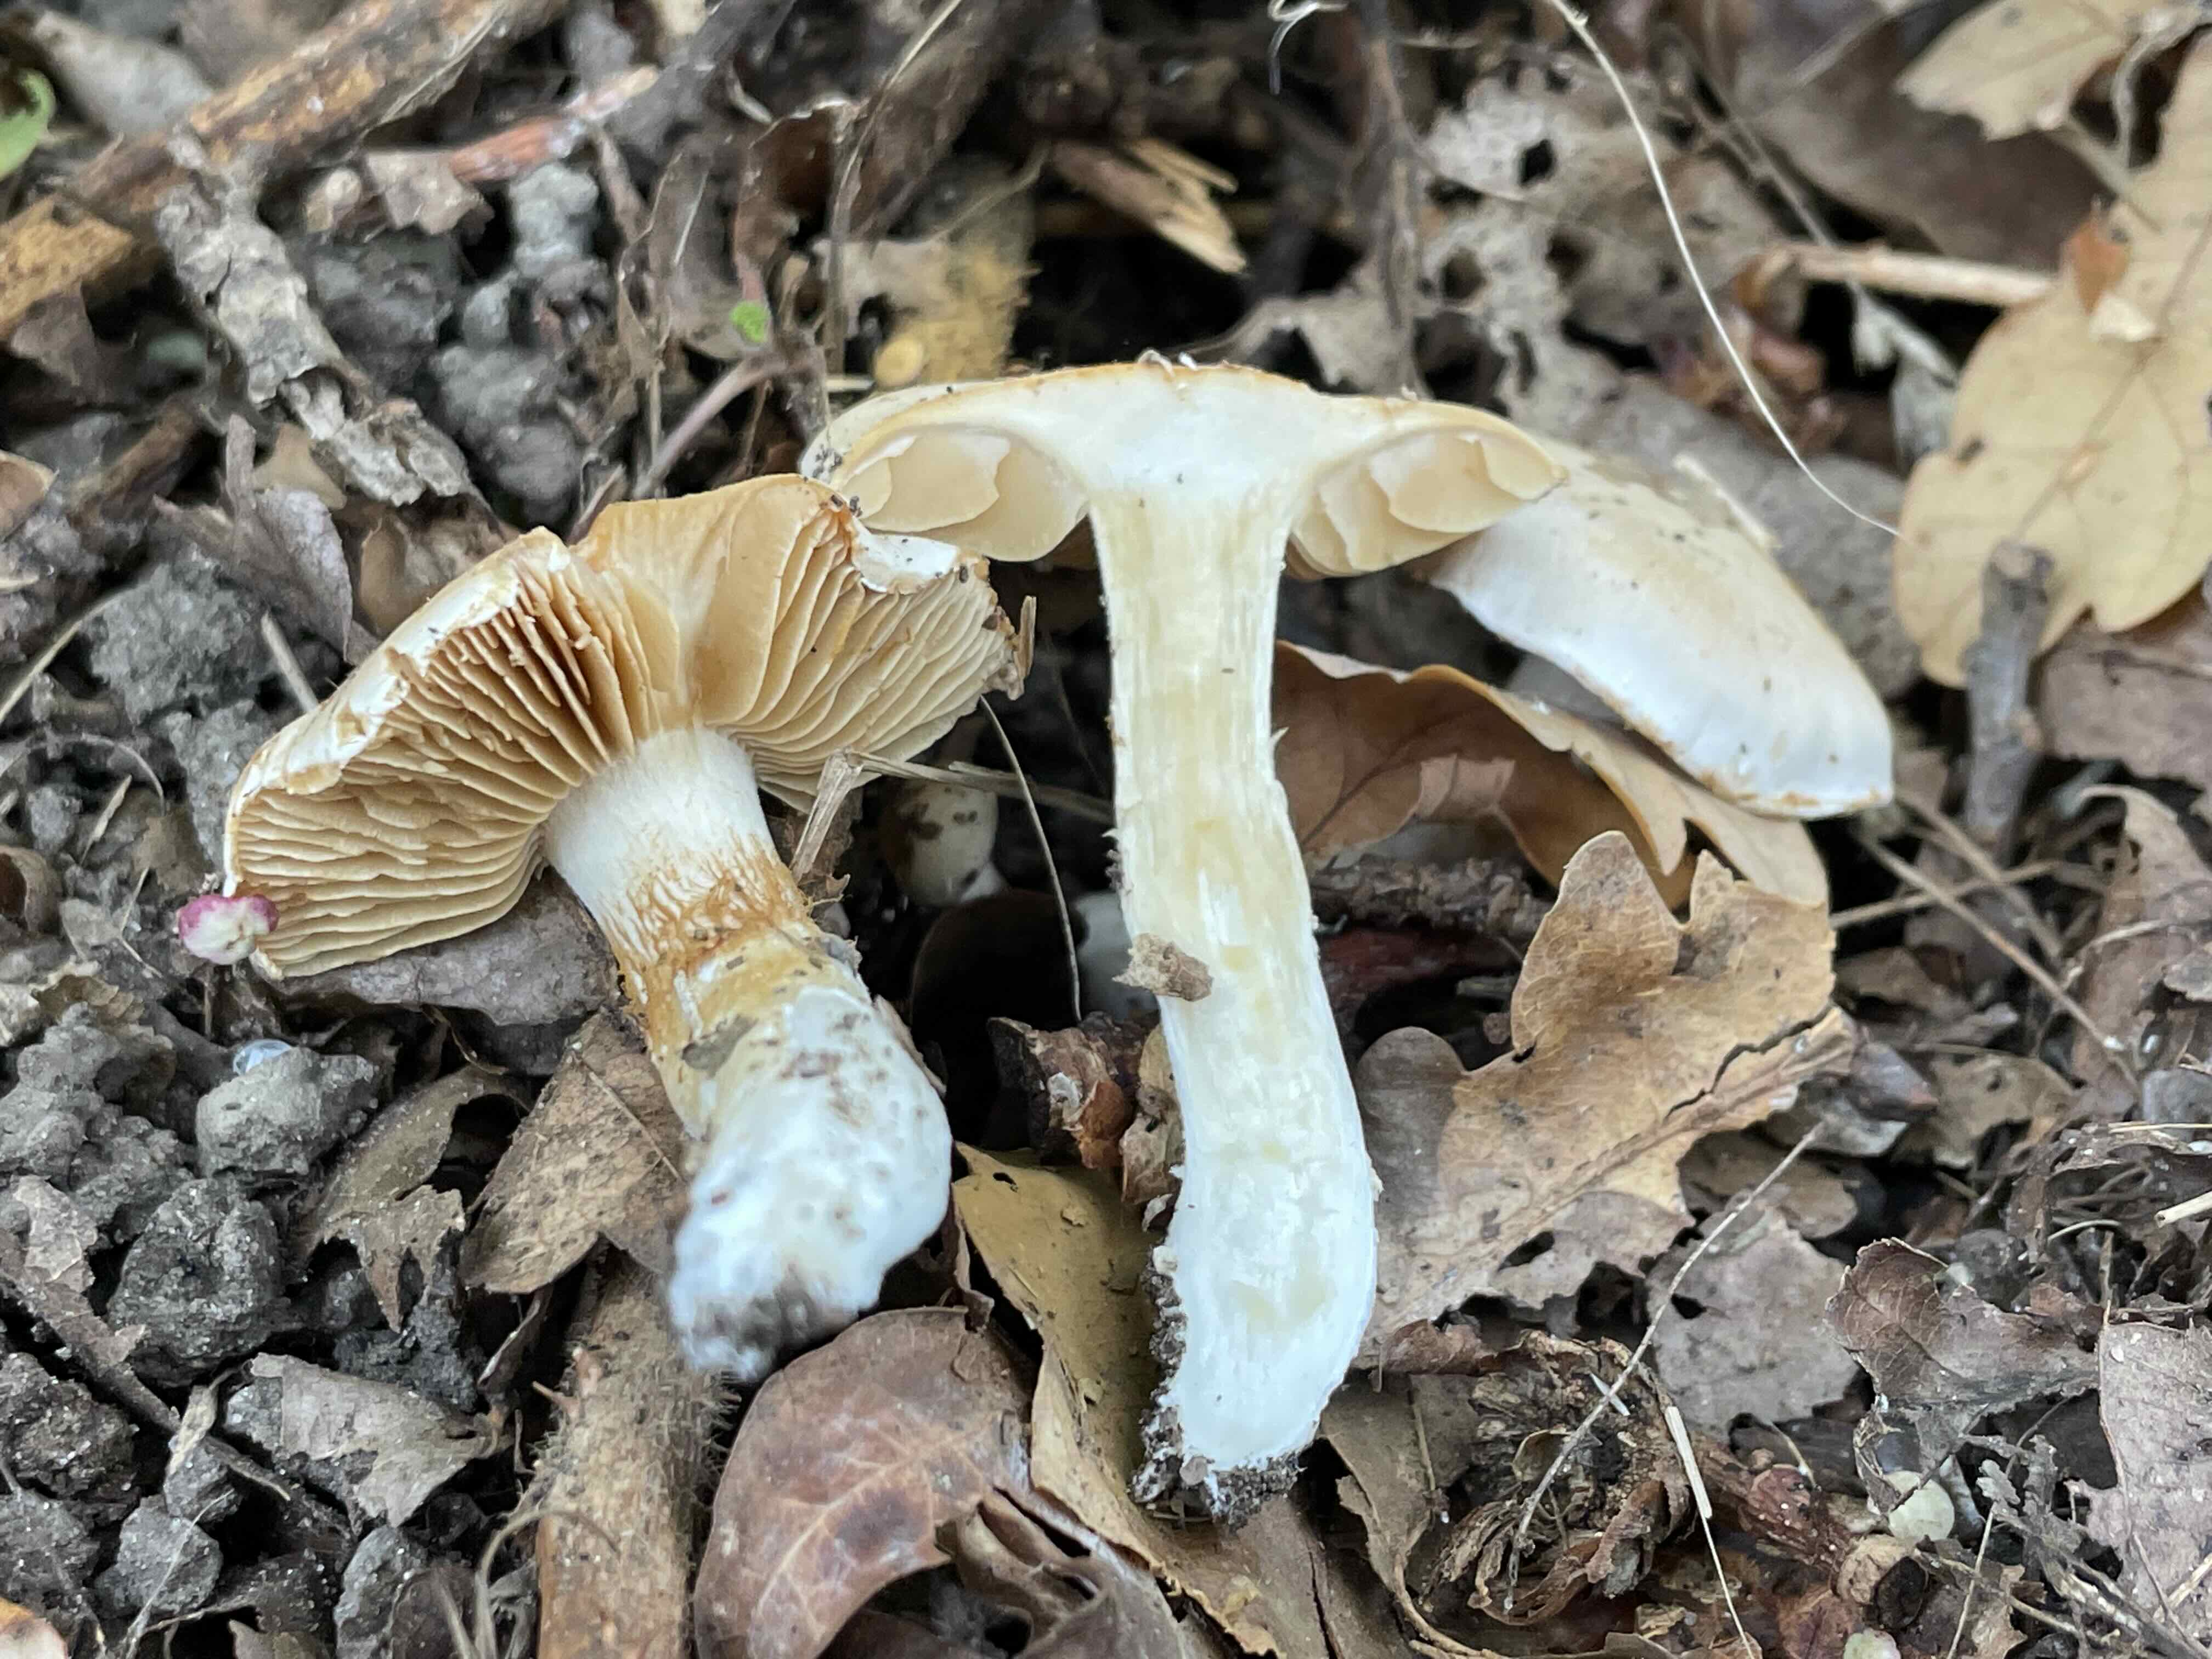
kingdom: Fungi
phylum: Basidiomycota
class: Agaricomycetes
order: Agaricales
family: Cortinariaceae
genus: Cortinarius
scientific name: Cortinarius
